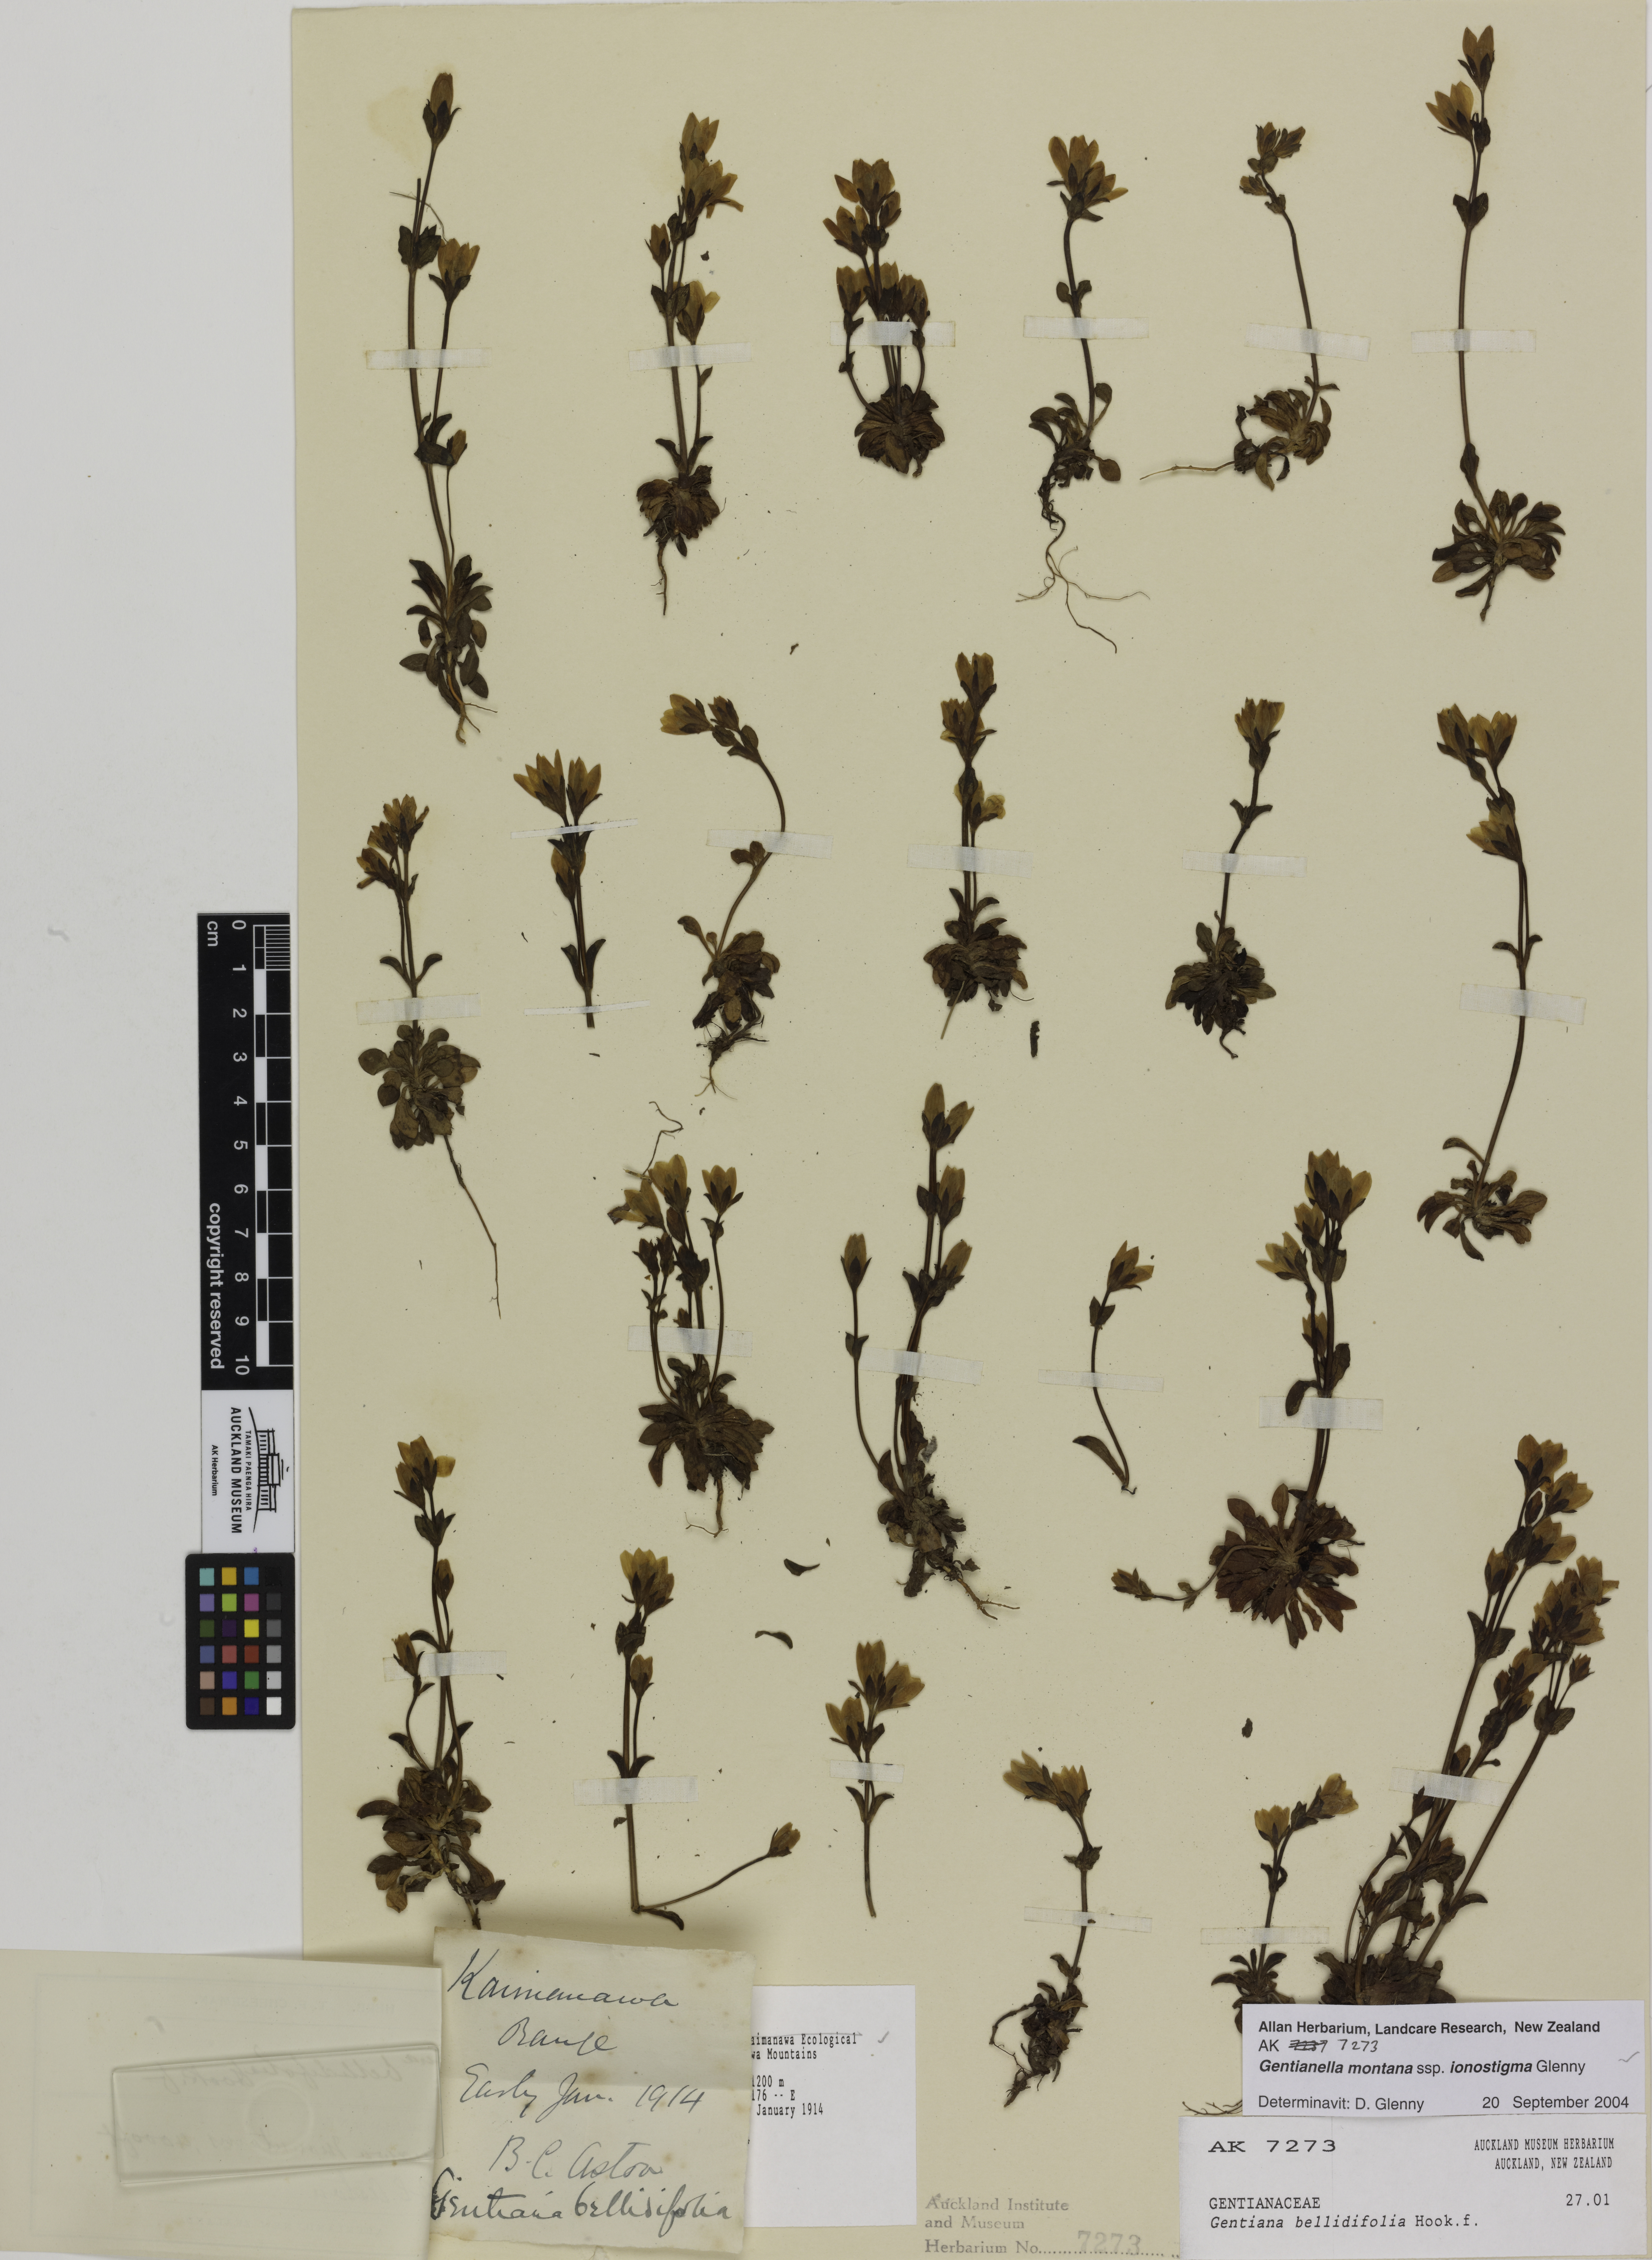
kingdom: Plantae
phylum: Tracheophyta
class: Magnoliopsida
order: Gentianales
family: Gentianaceae
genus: Gentianella
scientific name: Gentianella montana
